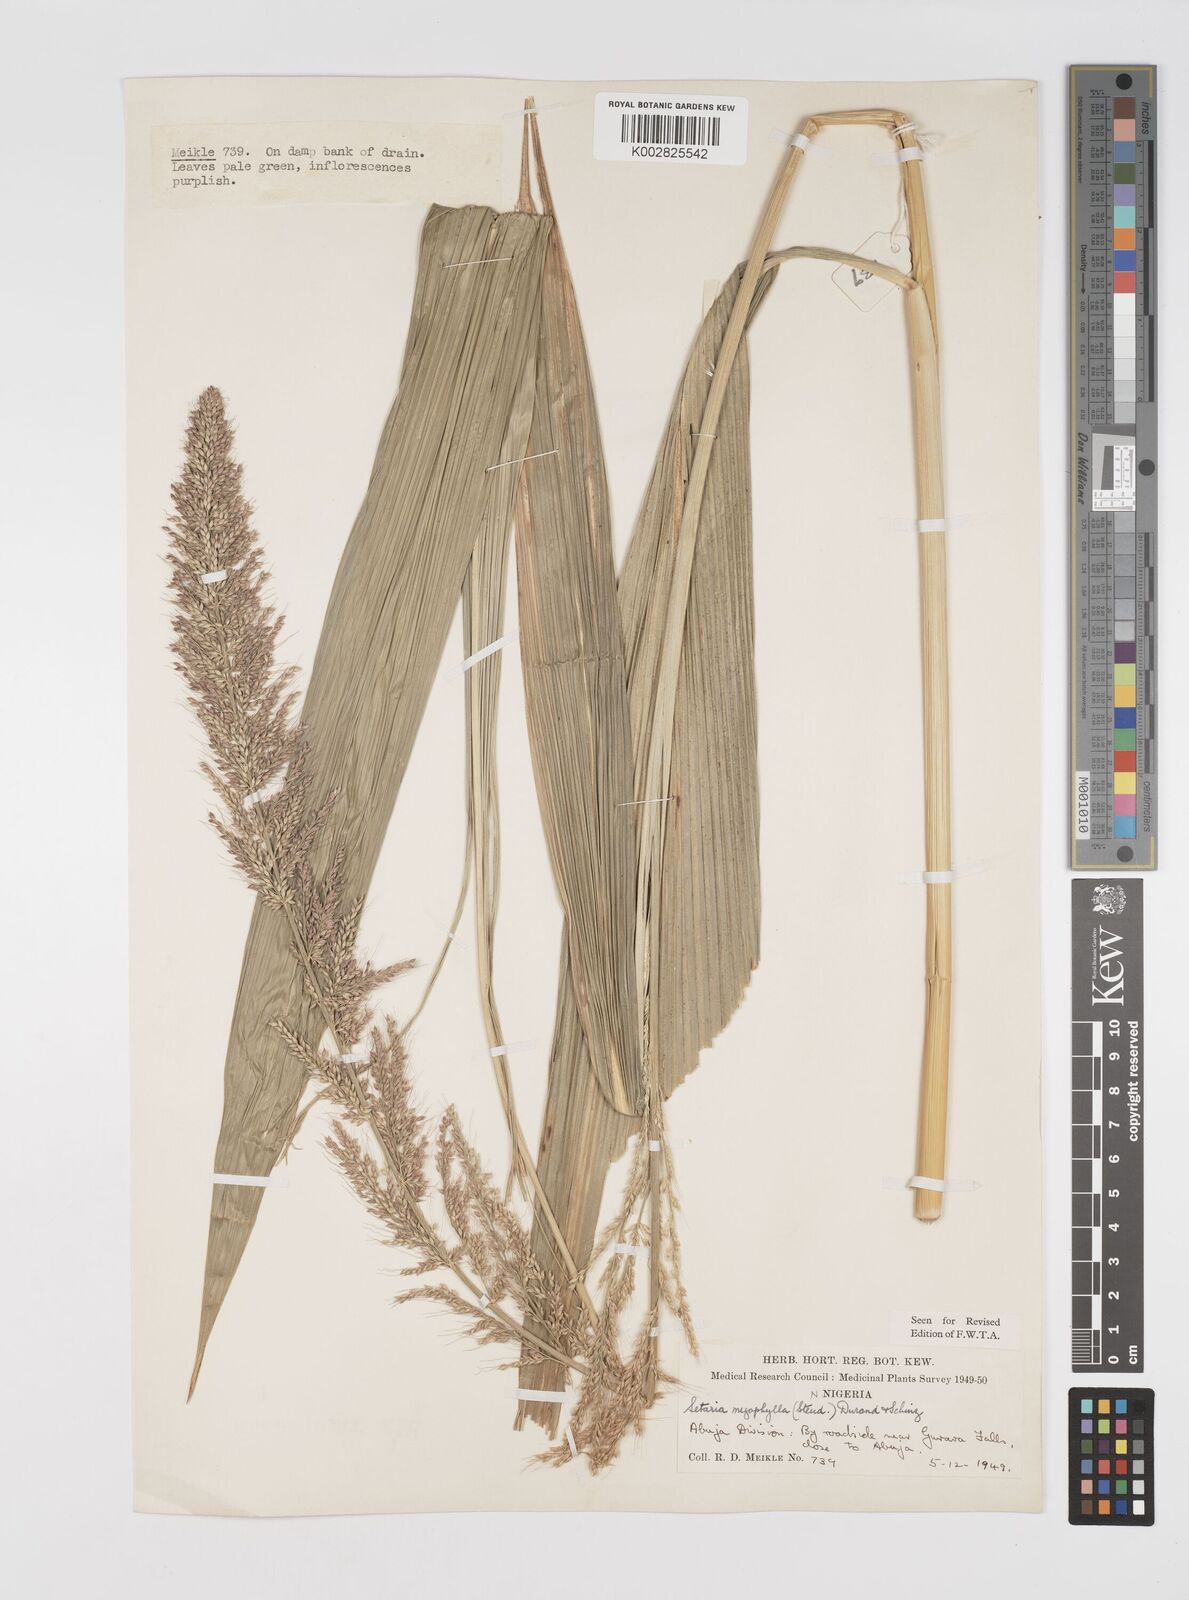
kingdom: Plantae
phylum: Tracheophyta
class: Liliopsida
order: Poales
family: Poaceae
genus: Setaria
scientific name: Setaria megaphylla
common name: Bigleaf bristlegrass
